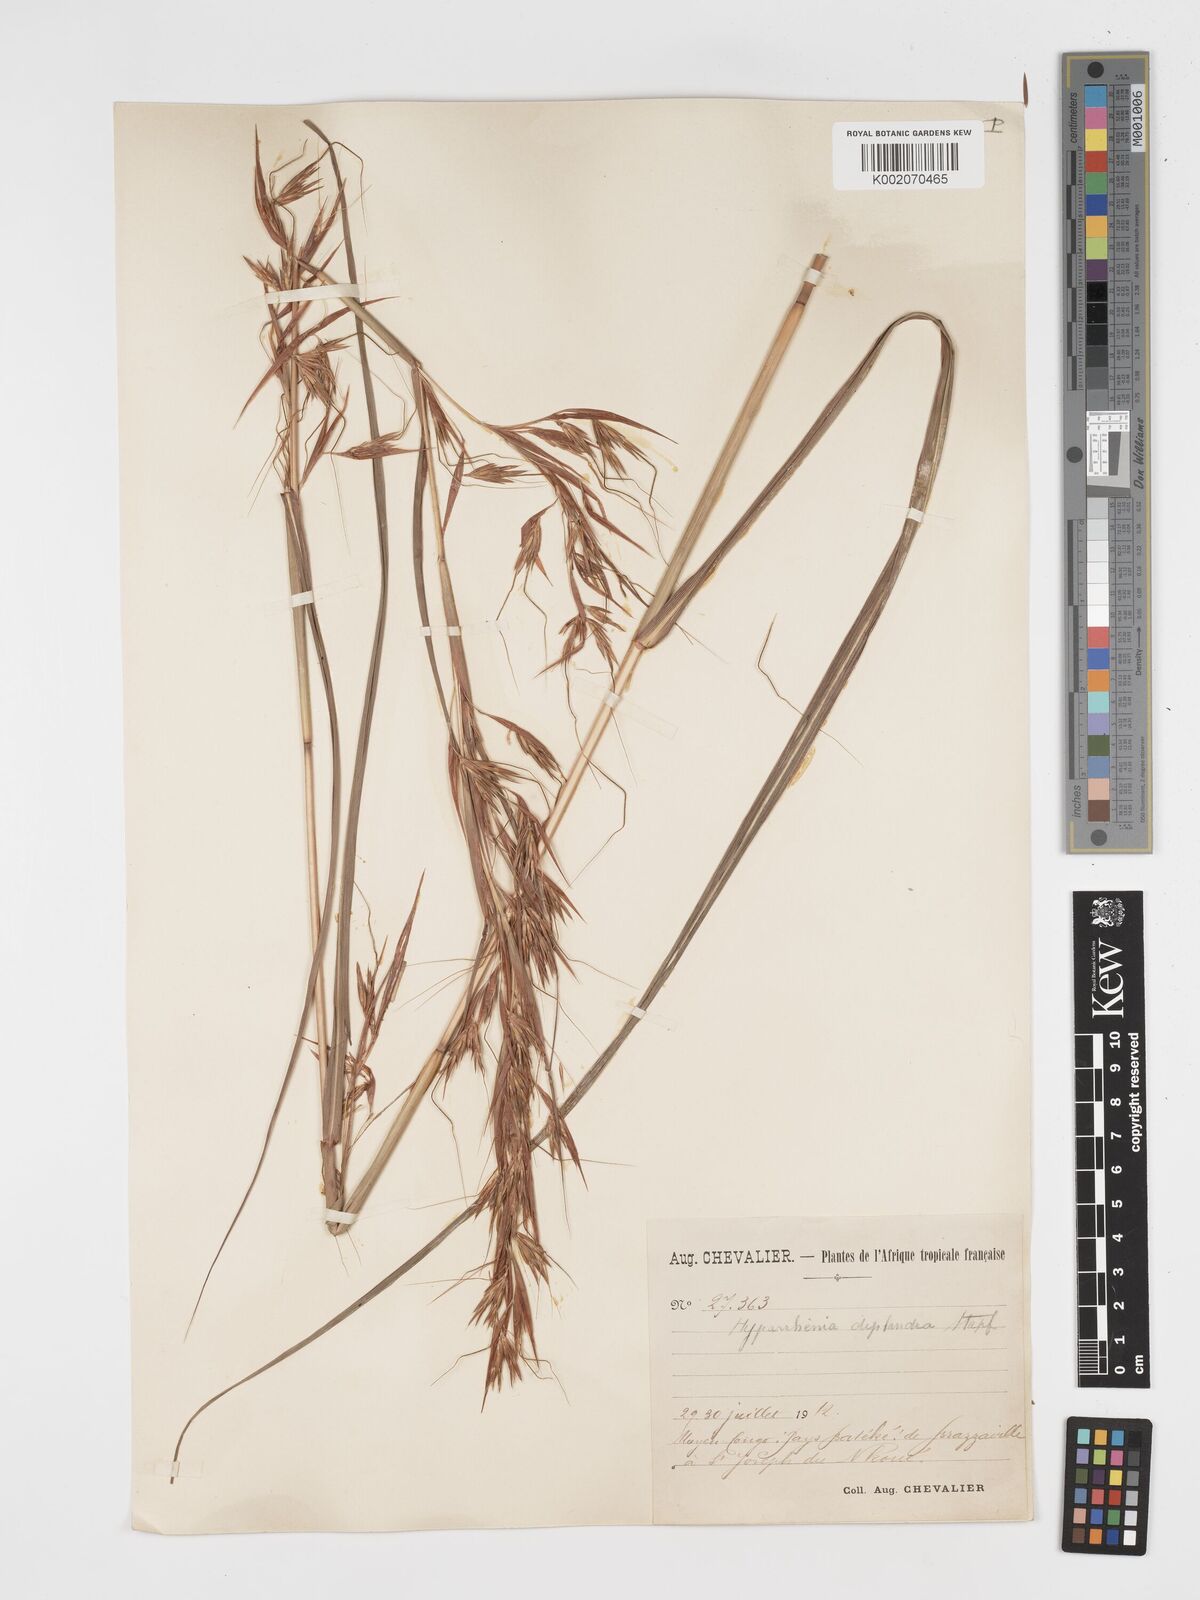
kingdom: Plantae
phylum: Tracheophyta
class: Liliopsida
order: Poales
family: Poaceae
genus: Hyparrhenia
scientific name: Hyparrhenia diplandra
